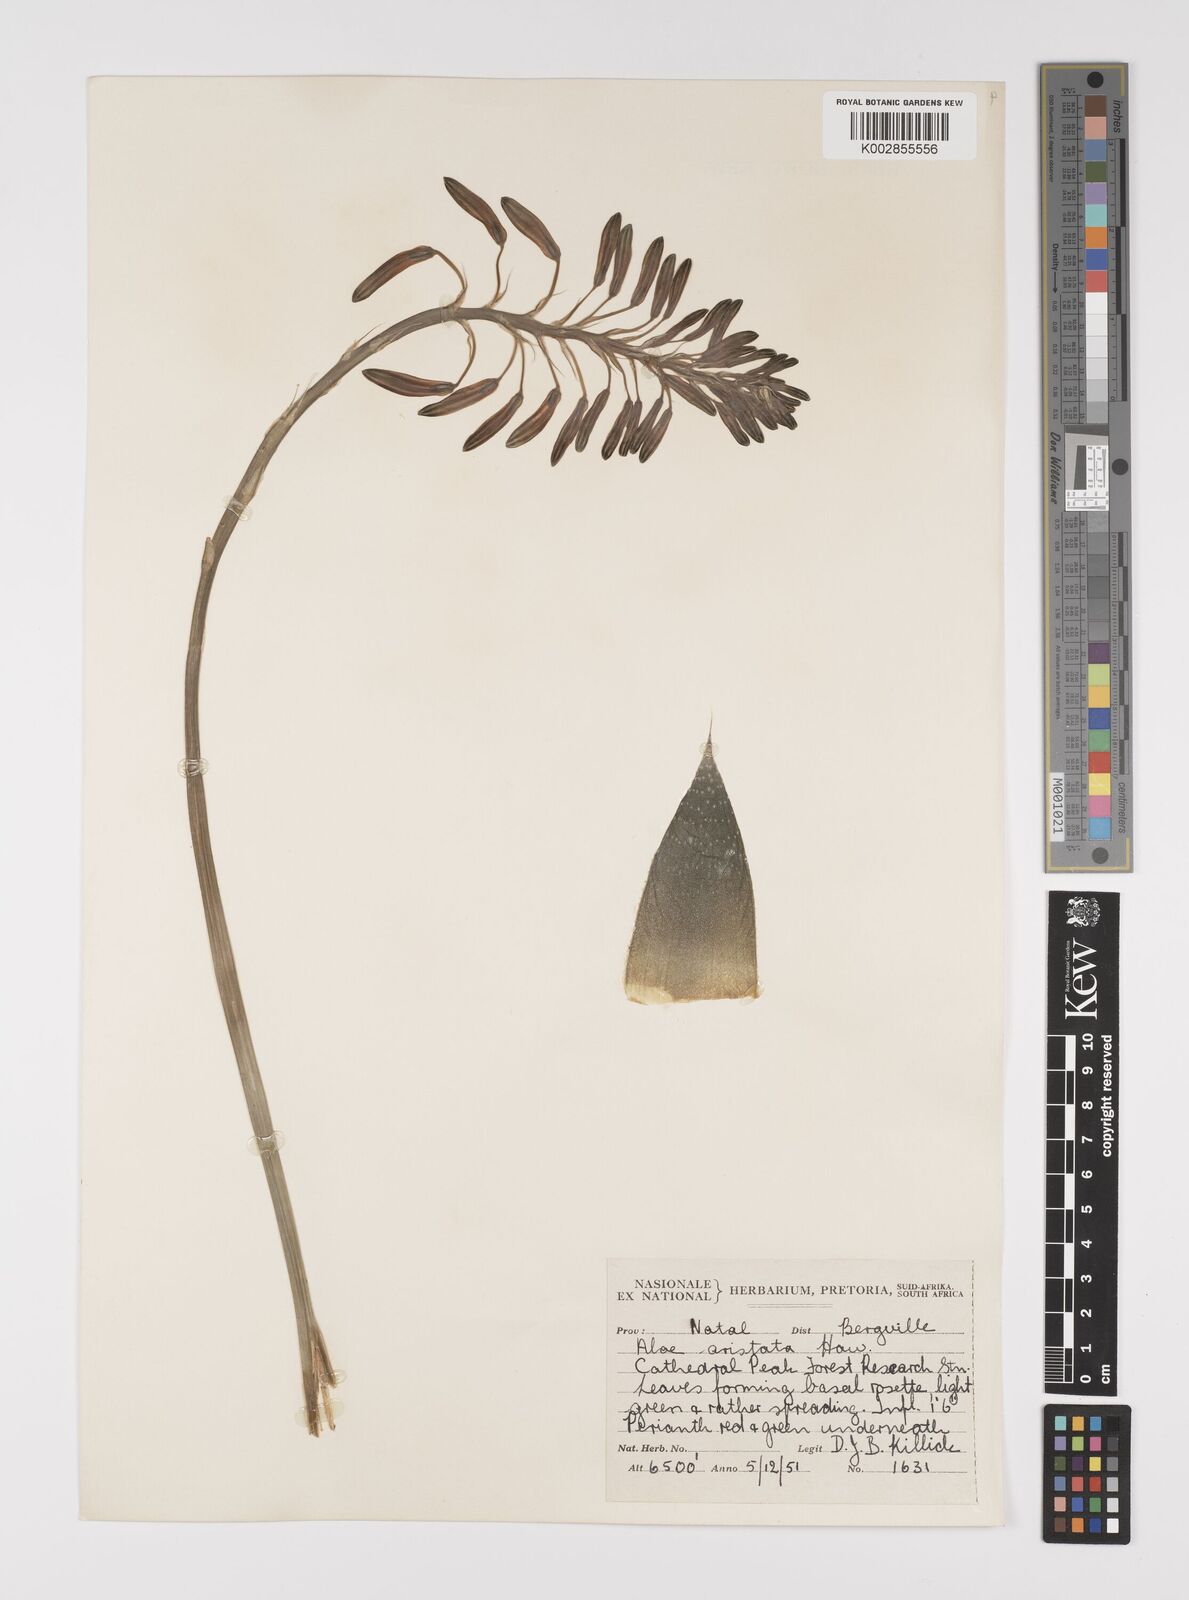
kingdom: Plantae
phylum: Tracheophyta
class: Liliopsida
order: Asparagales
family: Asphodelaceae
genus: Aristaloe
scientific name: Aristaloe aristata
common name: Guinea-fowl aloe
